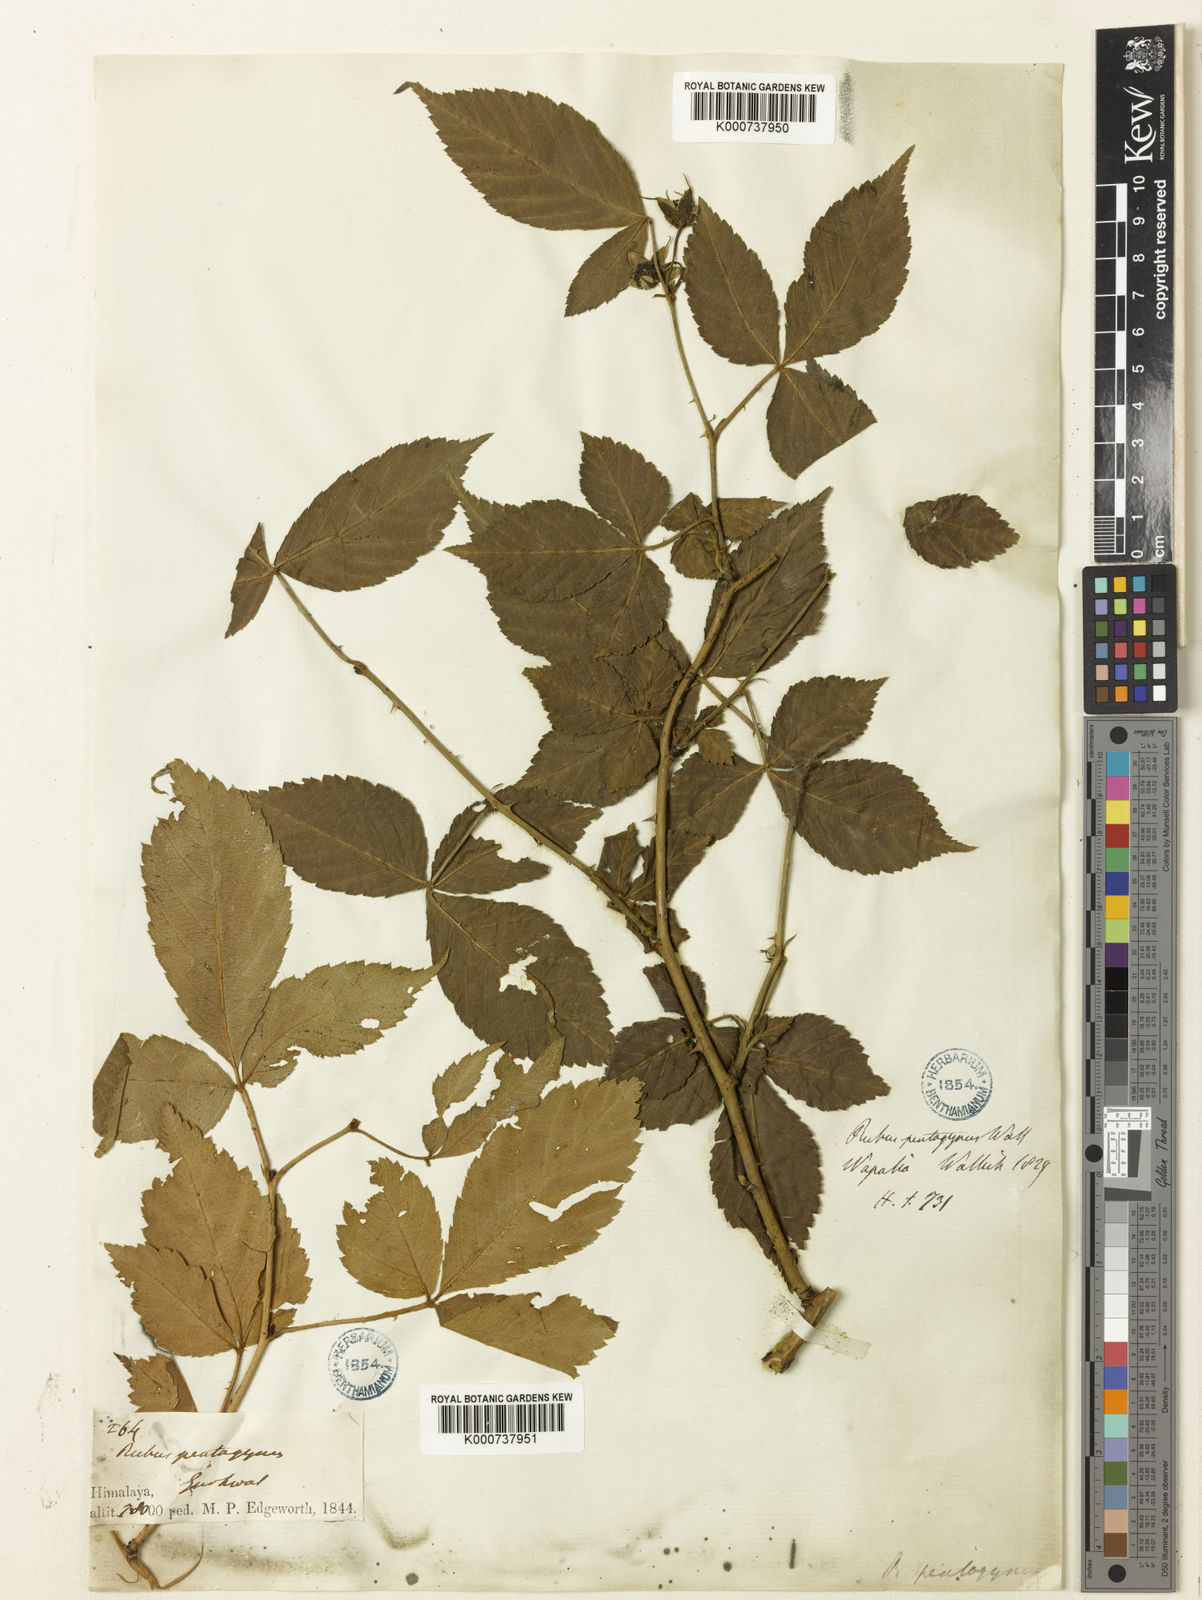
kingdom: Plantae
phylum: Tracheophyta
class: Magnoliopsida
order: Rosales
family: Rosaceae
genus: Rubus
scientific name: Rubus
